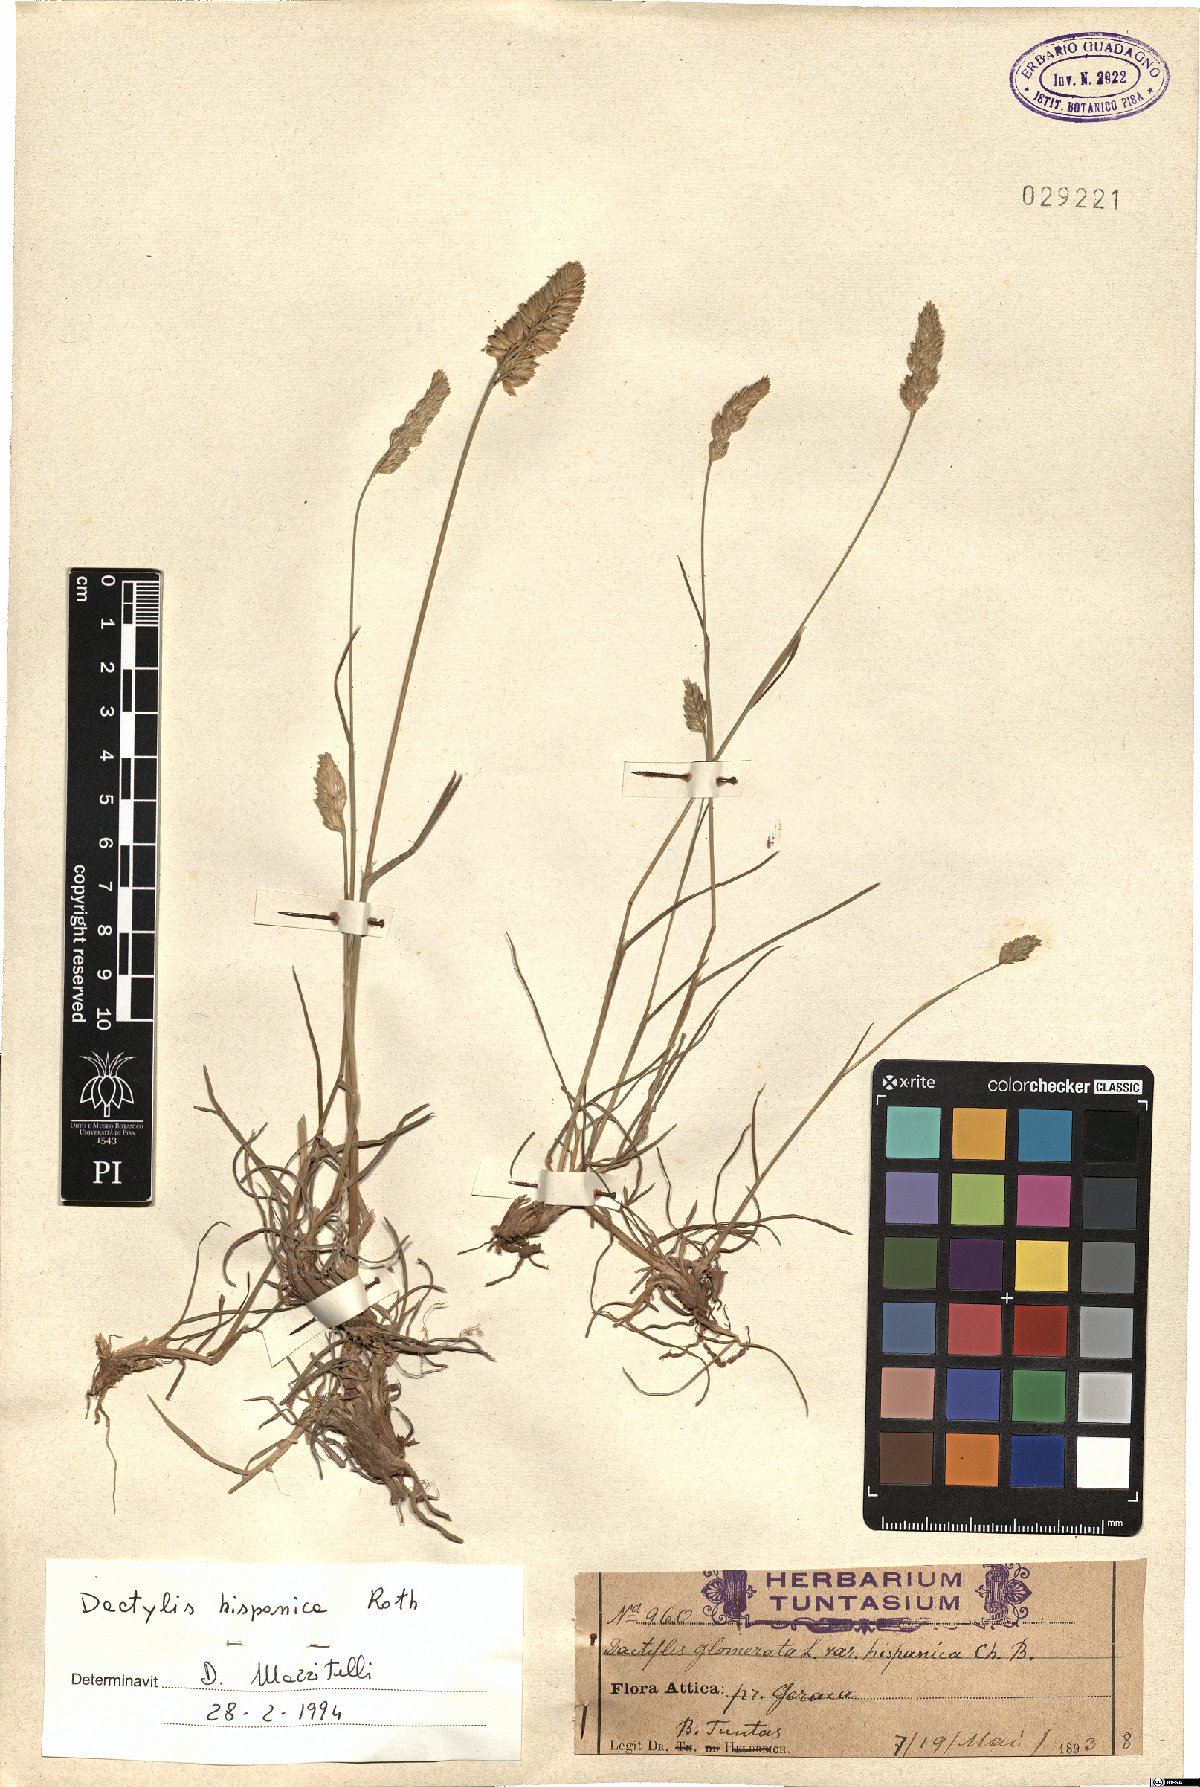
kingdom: Plantae
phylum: Tracheophyta
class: Liliopsida
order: Poales
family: Poaceae
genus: Dactylis
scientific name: Dactylis glomerata
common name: Orchardgrass
